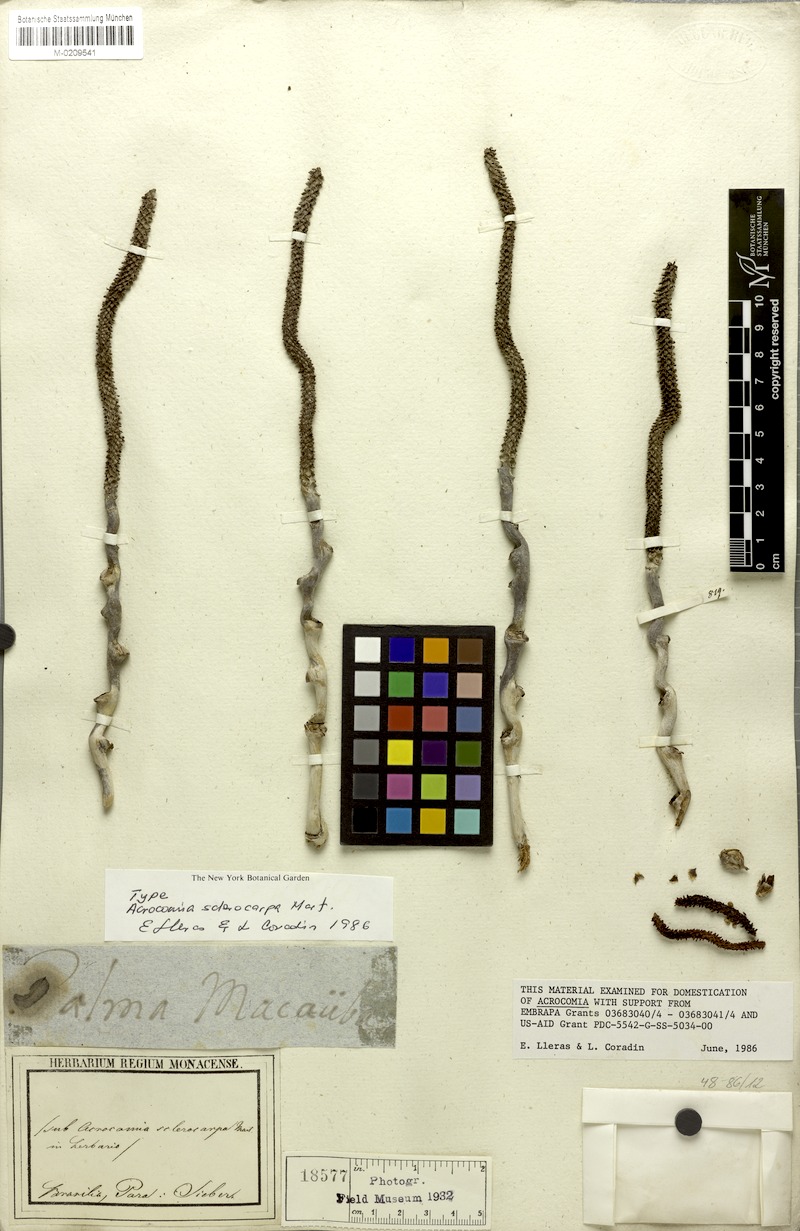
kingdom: Plantae
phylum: Tracheophyta
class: Liliopsida
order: Arecales
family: Arecaceae
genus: Acrocomia
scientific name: Acrocomia aculeata
